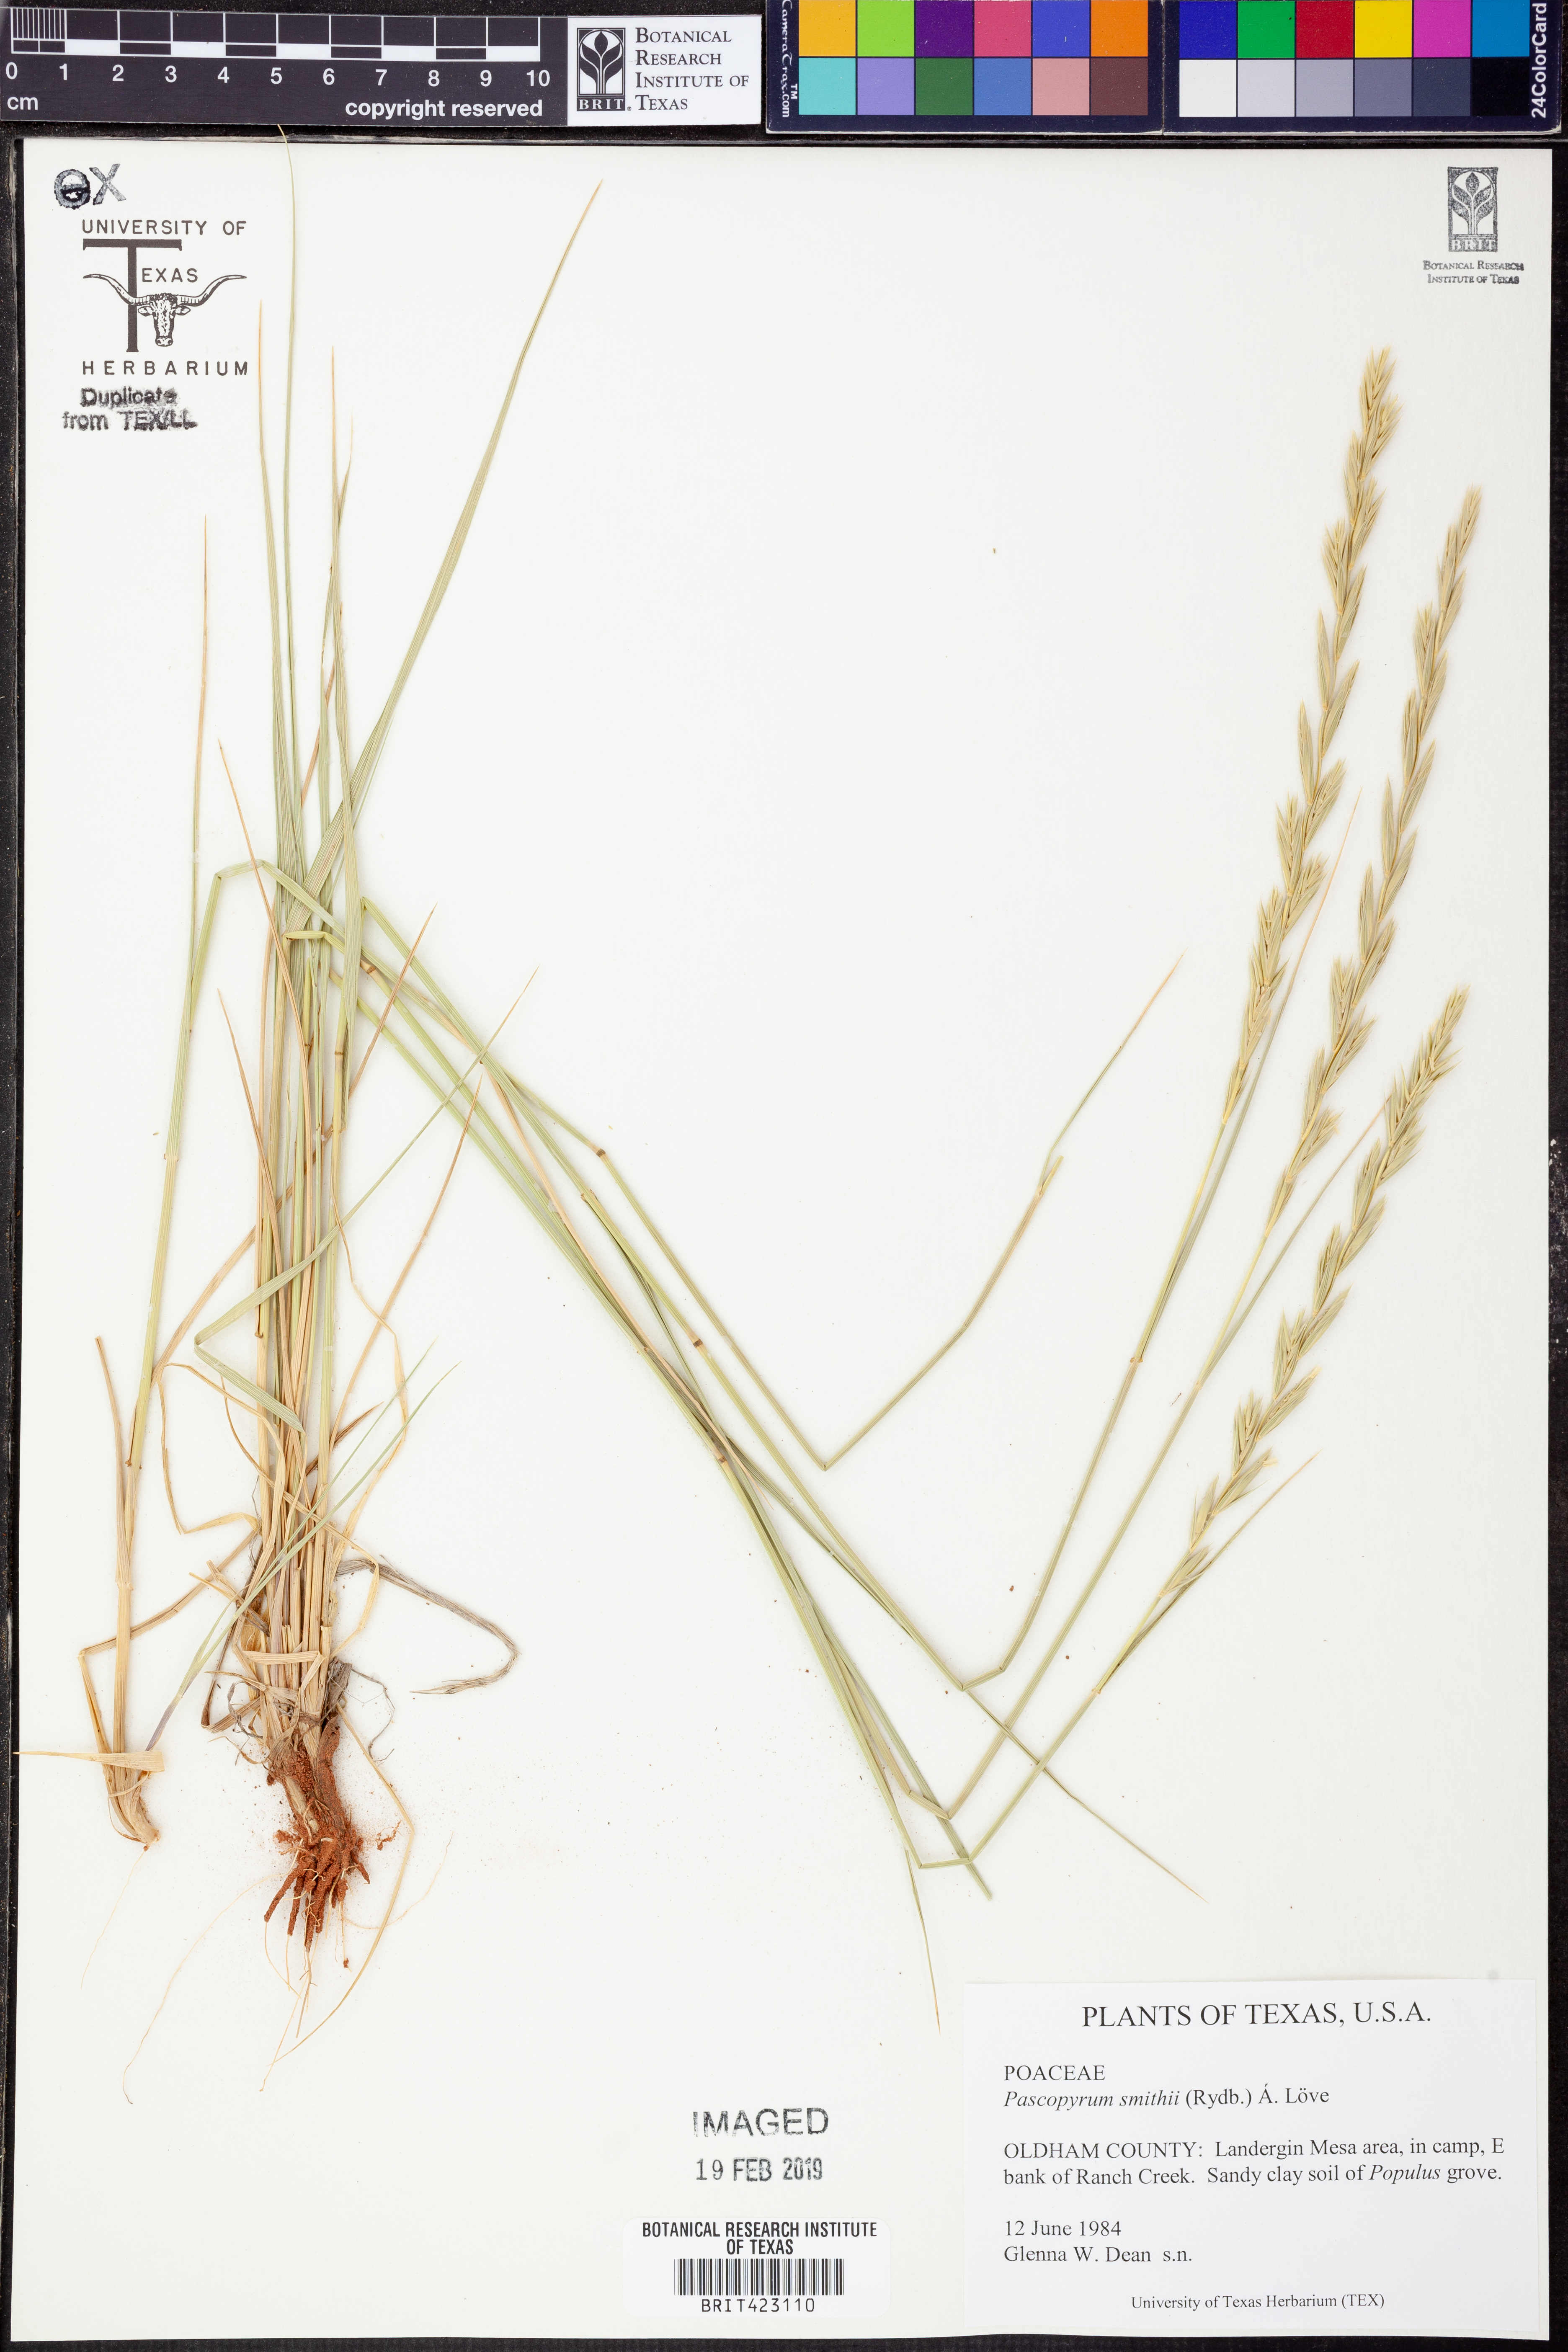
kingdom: Plantae
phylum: Tracheophyta
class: Liliopsida
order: Poales
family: Poaceae
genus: Elymus
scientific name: Elymus smithii
